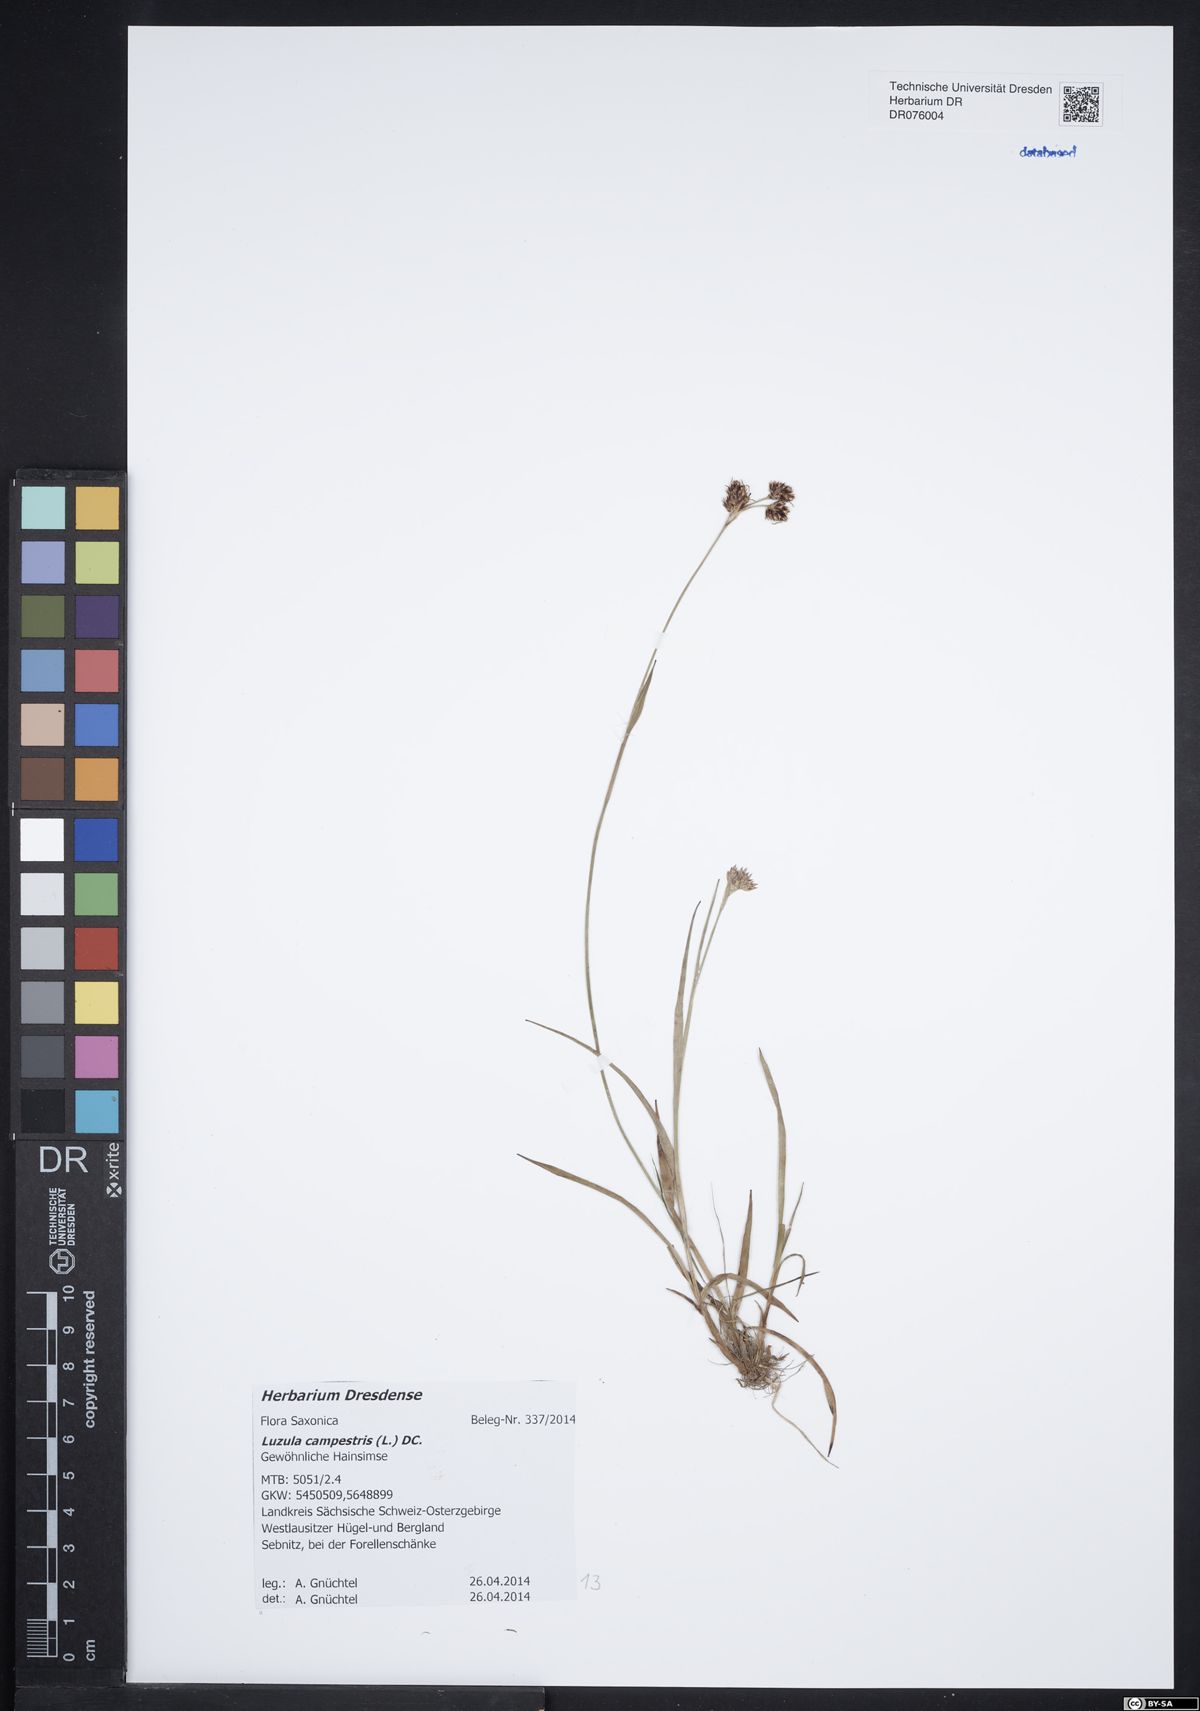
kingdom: Plantae
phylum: Tracheophyta
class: Liliopsida
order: Poales
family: Juncaceae
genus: Luzula
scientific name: Luzula campestris
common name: Field wood-rush
